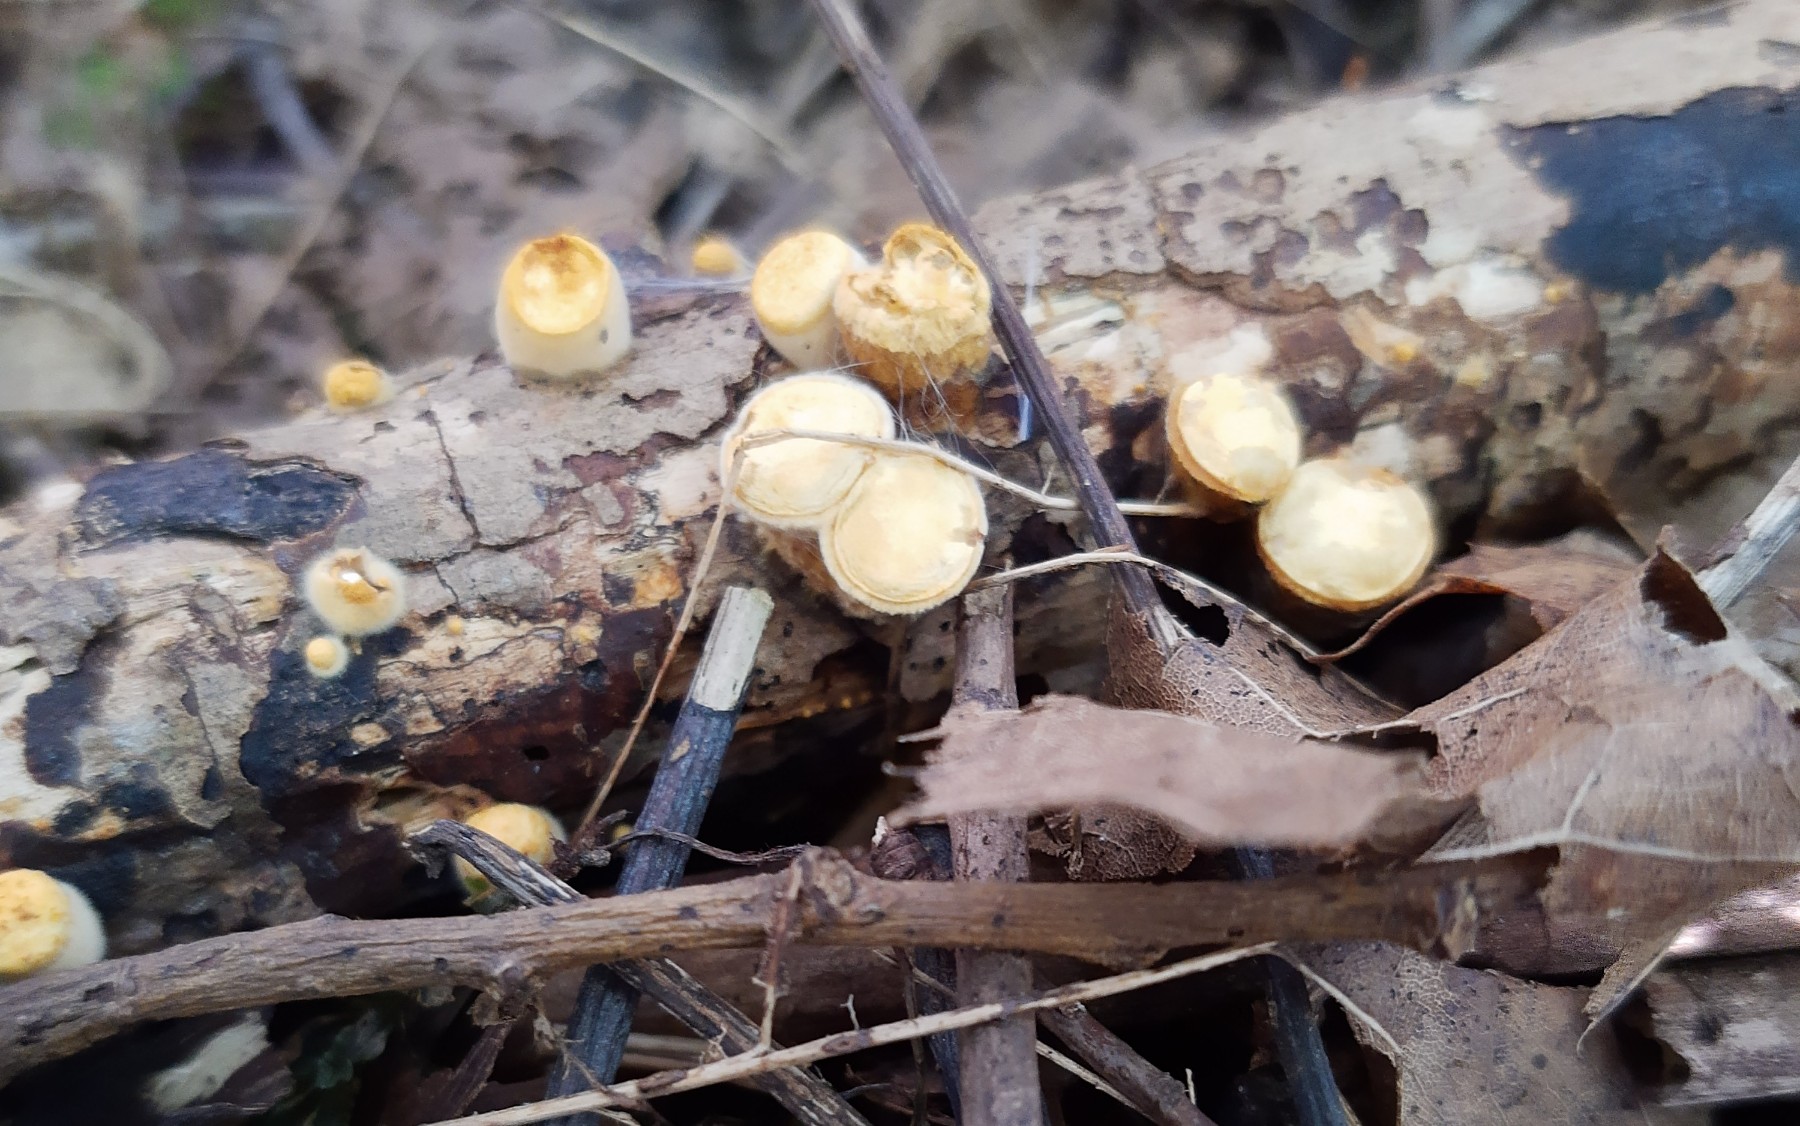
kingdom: Fungi
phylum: Basidiomycota
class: Agaricomycetes
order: Agaricales
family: Nidulariaceae
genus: Crucibulum
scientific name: Crucibulum crucibuliforme
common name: krukkesvamp
